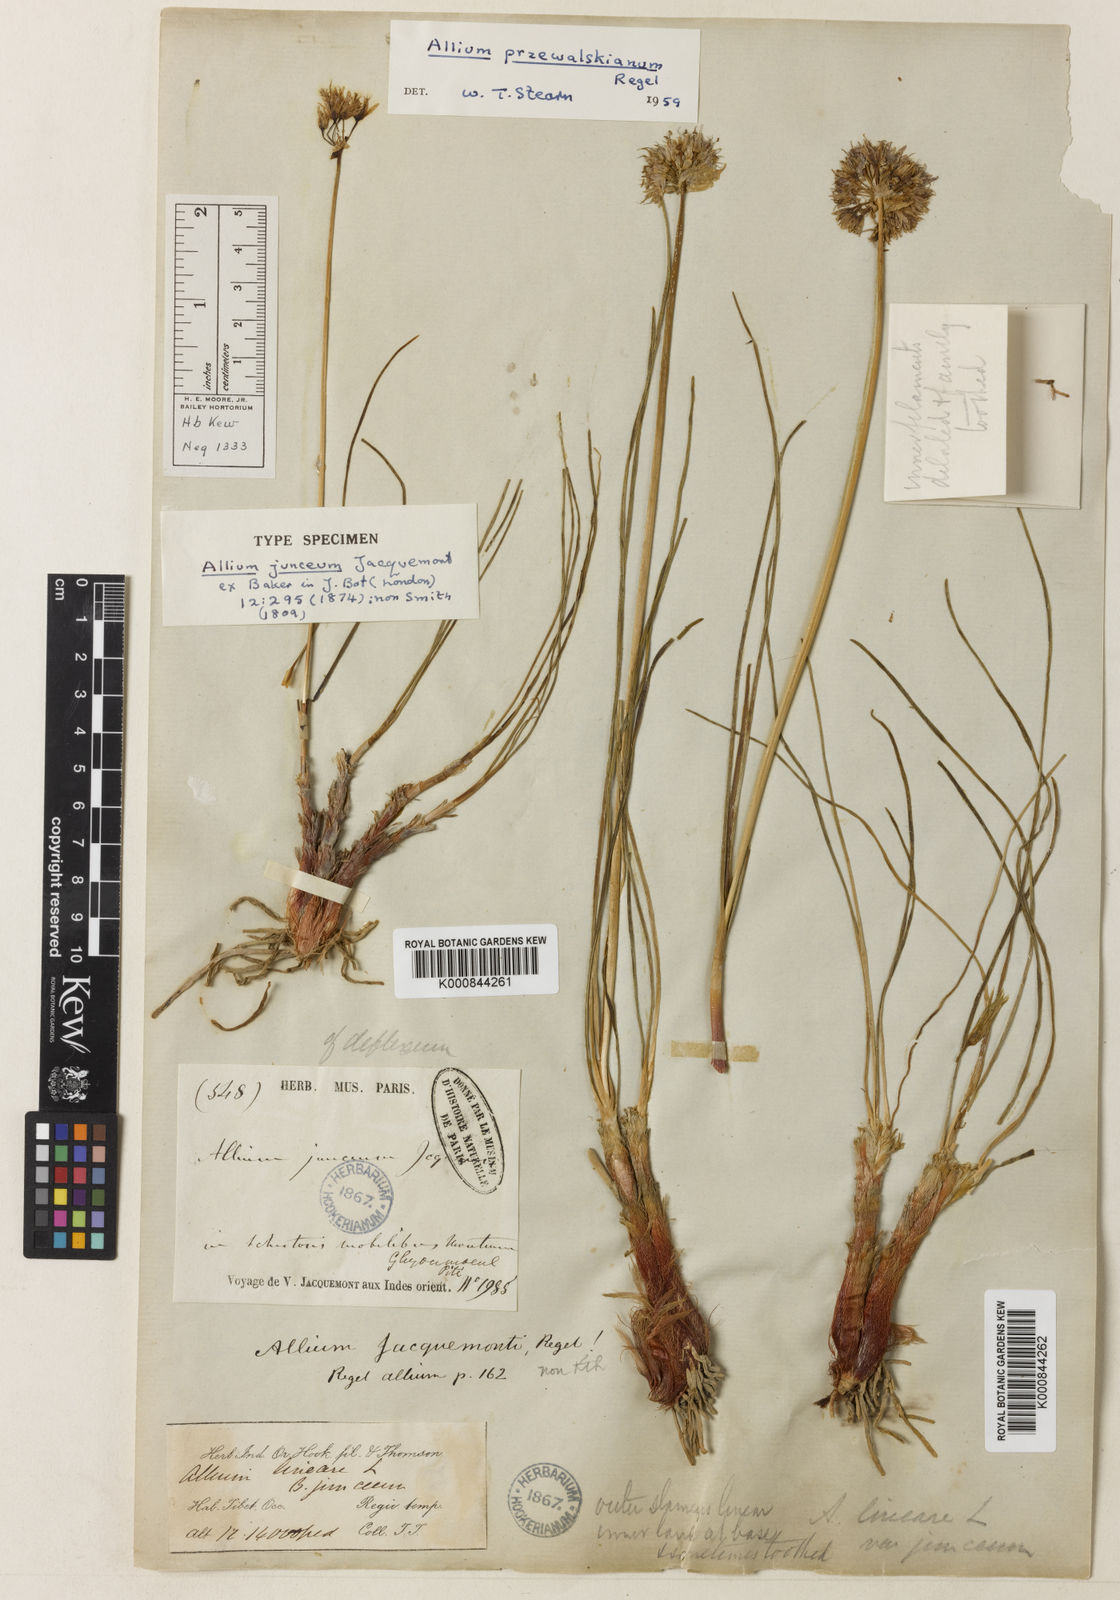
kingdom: Plantae
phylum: Tracheophyta
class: Liliopsida
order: Asparagales
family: Amaryllidaceae
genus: Allium
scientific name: Allium przewalskianum
